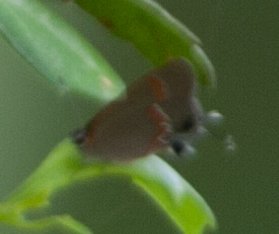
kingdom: Animalia
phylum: Arthropoda
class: Insecta
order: Lepidoptera
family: Lycaenidae
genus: Calycopis
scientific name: Calycopis cecrops
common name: Red-banded Hairstreak
